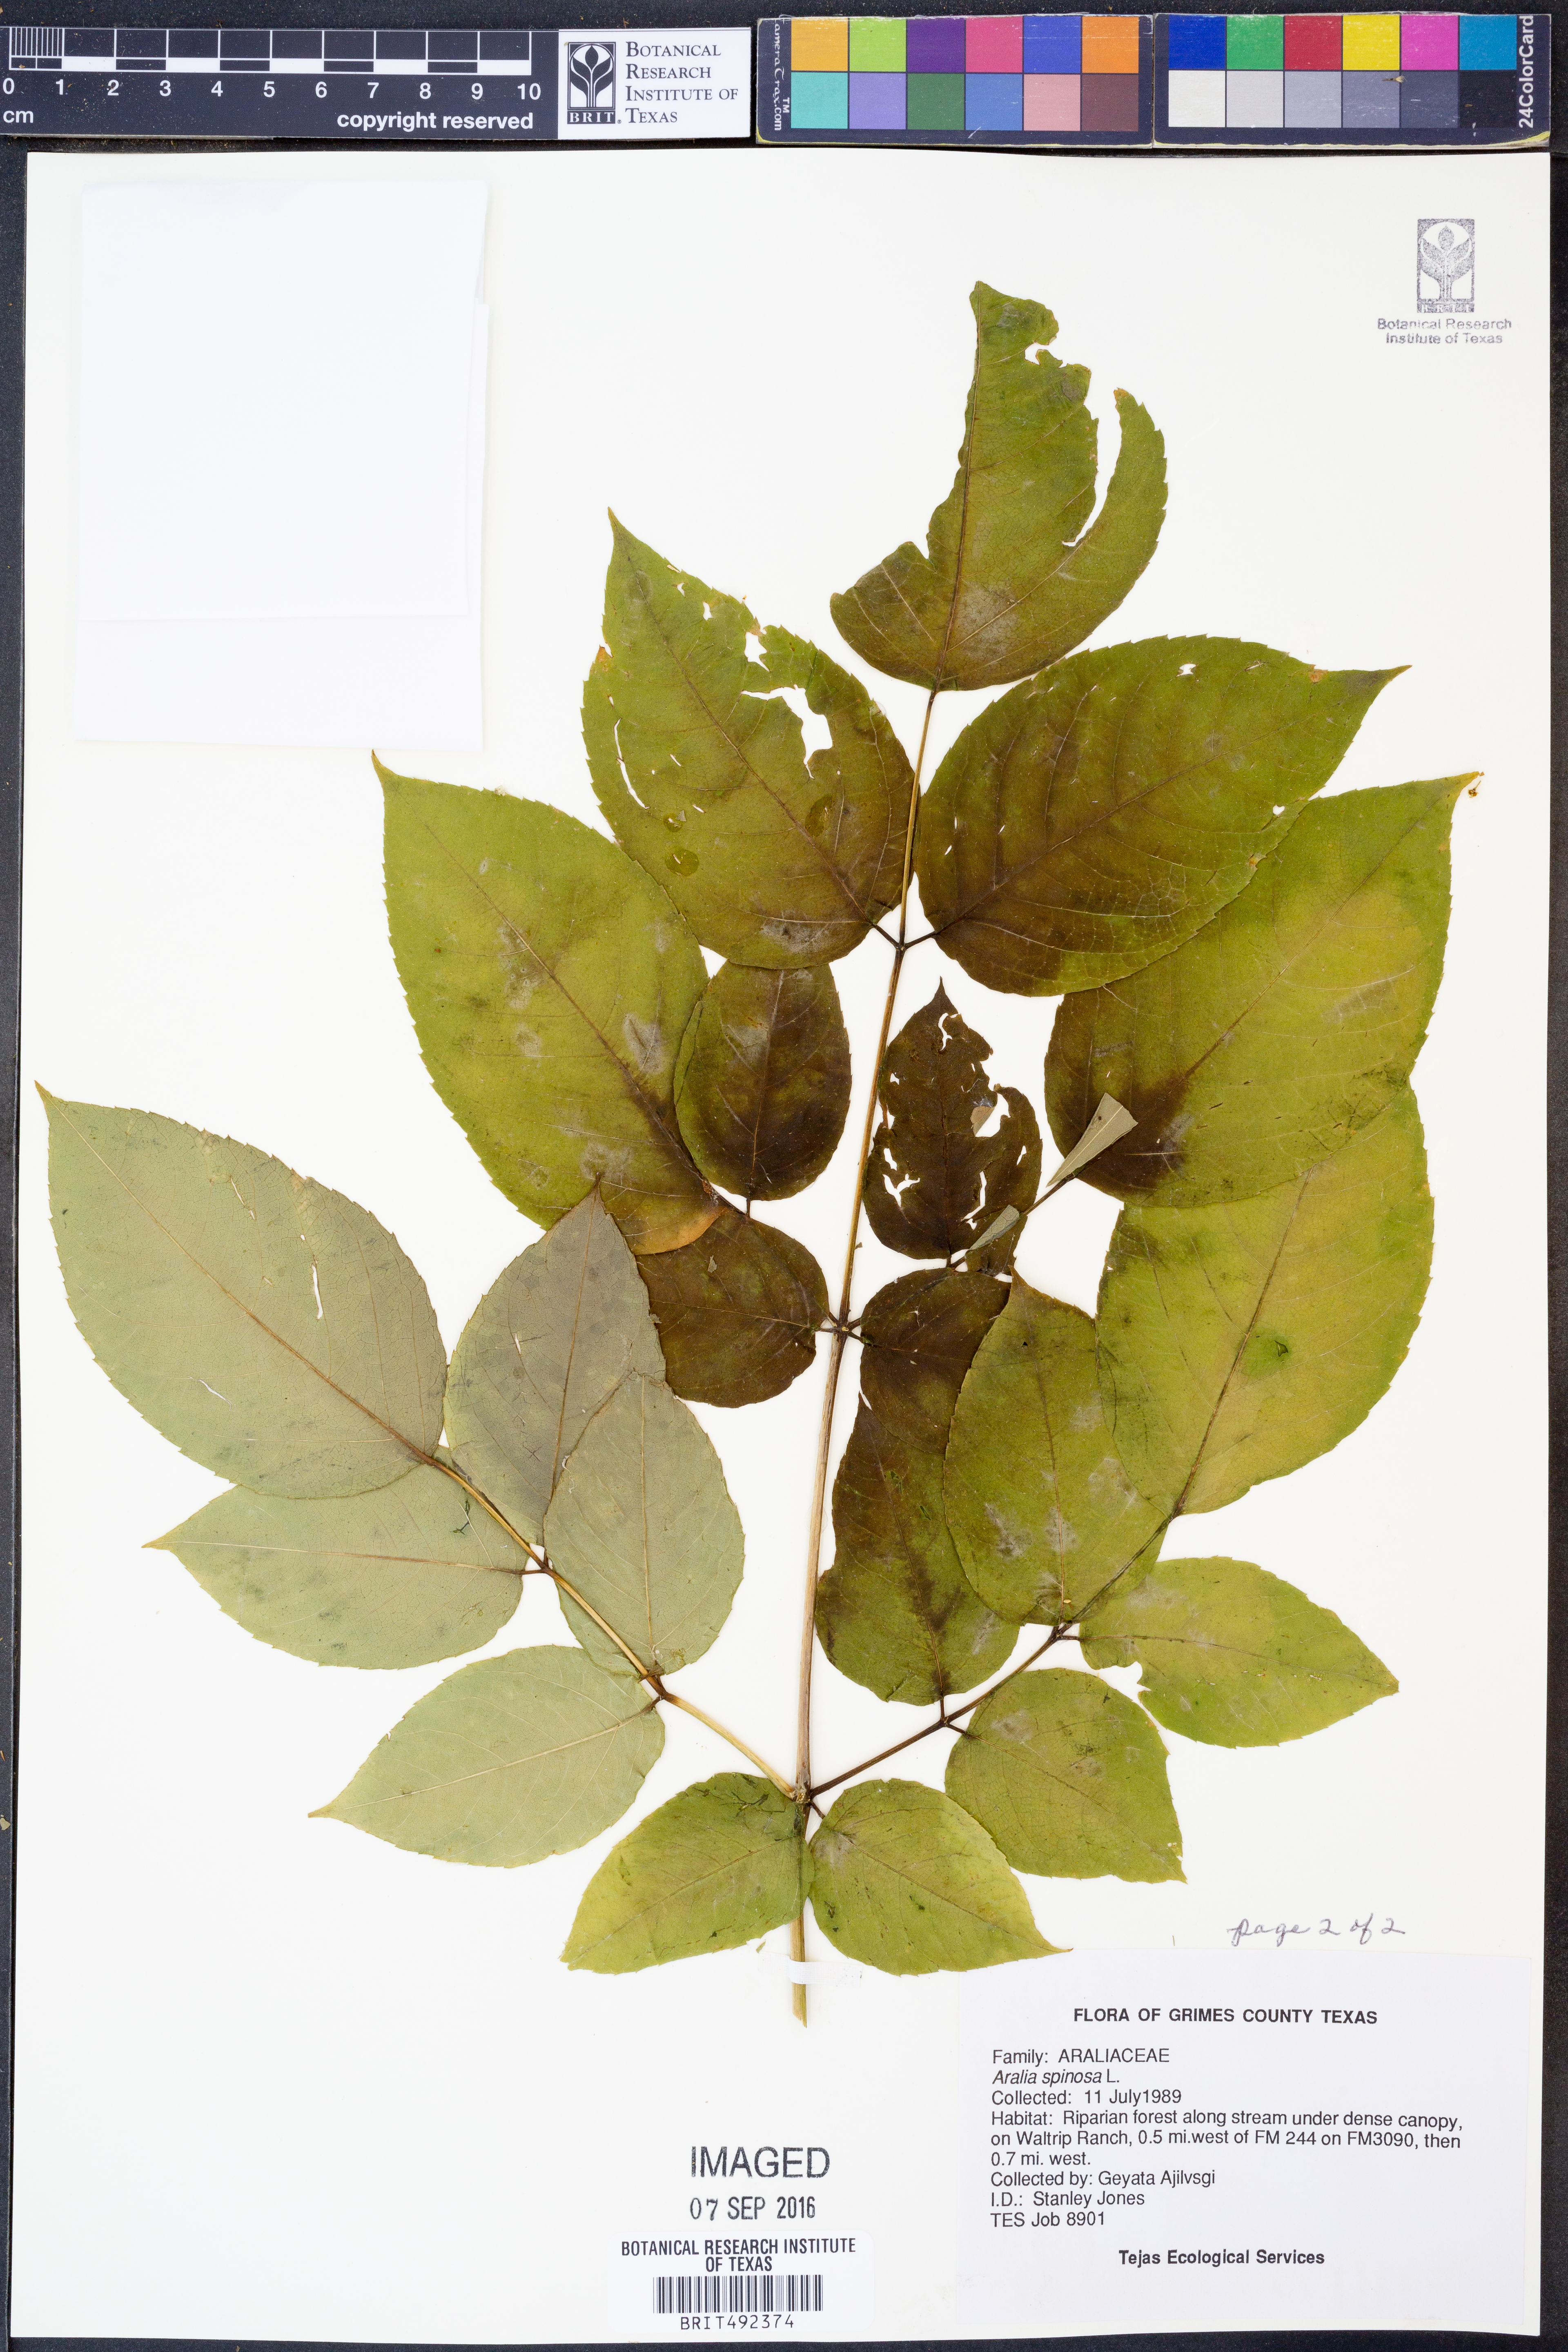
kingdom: Plantae
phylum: Tracheophyta
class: Magnoliopsida
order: Apiales
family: Araliaceae
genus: Aralia
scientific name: Aralia spinosa
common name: Hercules'-club
